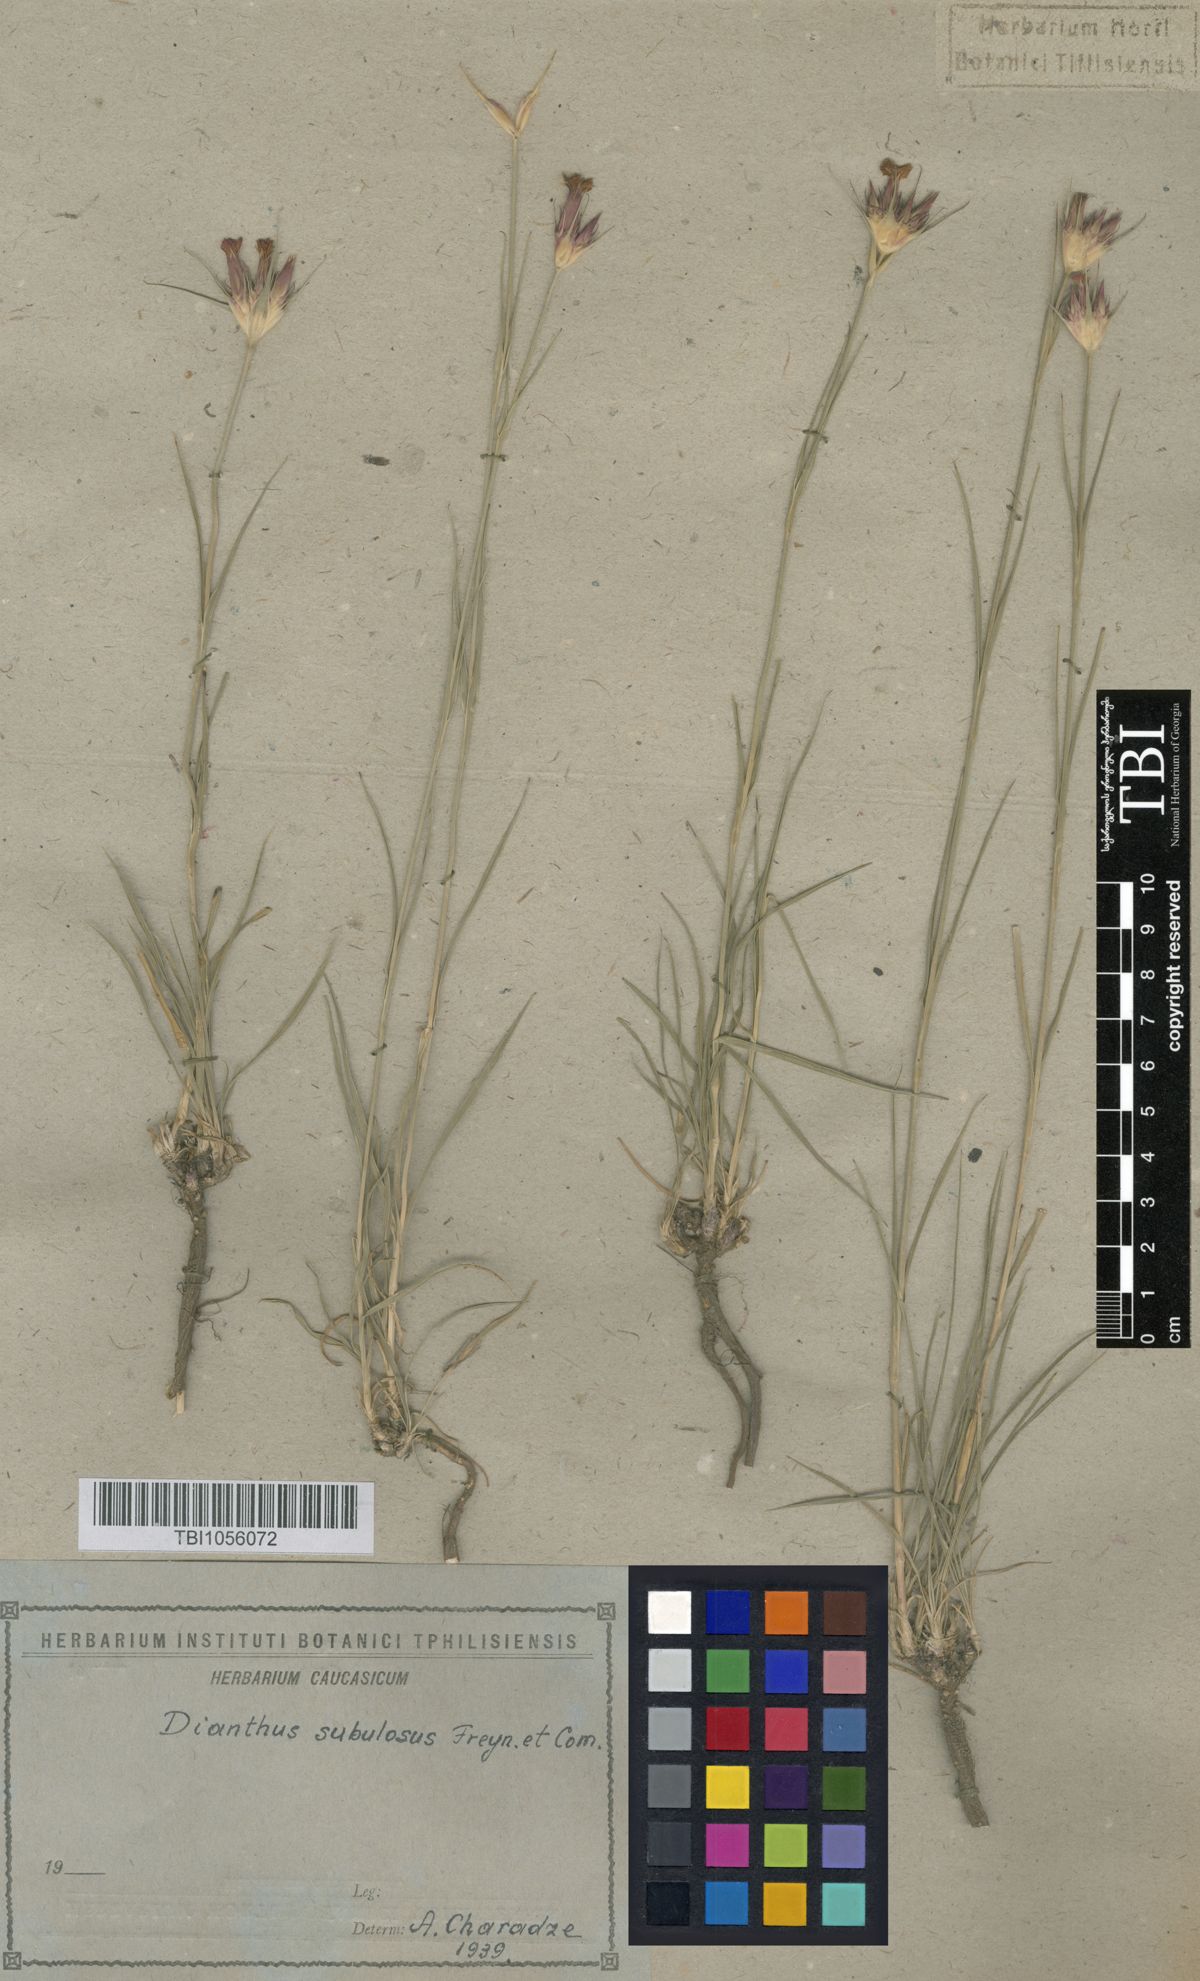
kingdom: Plantae
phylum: Tracheophyta
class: Magnoliopsida
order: Caryophyllales
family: Caryophyllaceae
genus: Dianthus
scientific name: Dianthus subulosus
